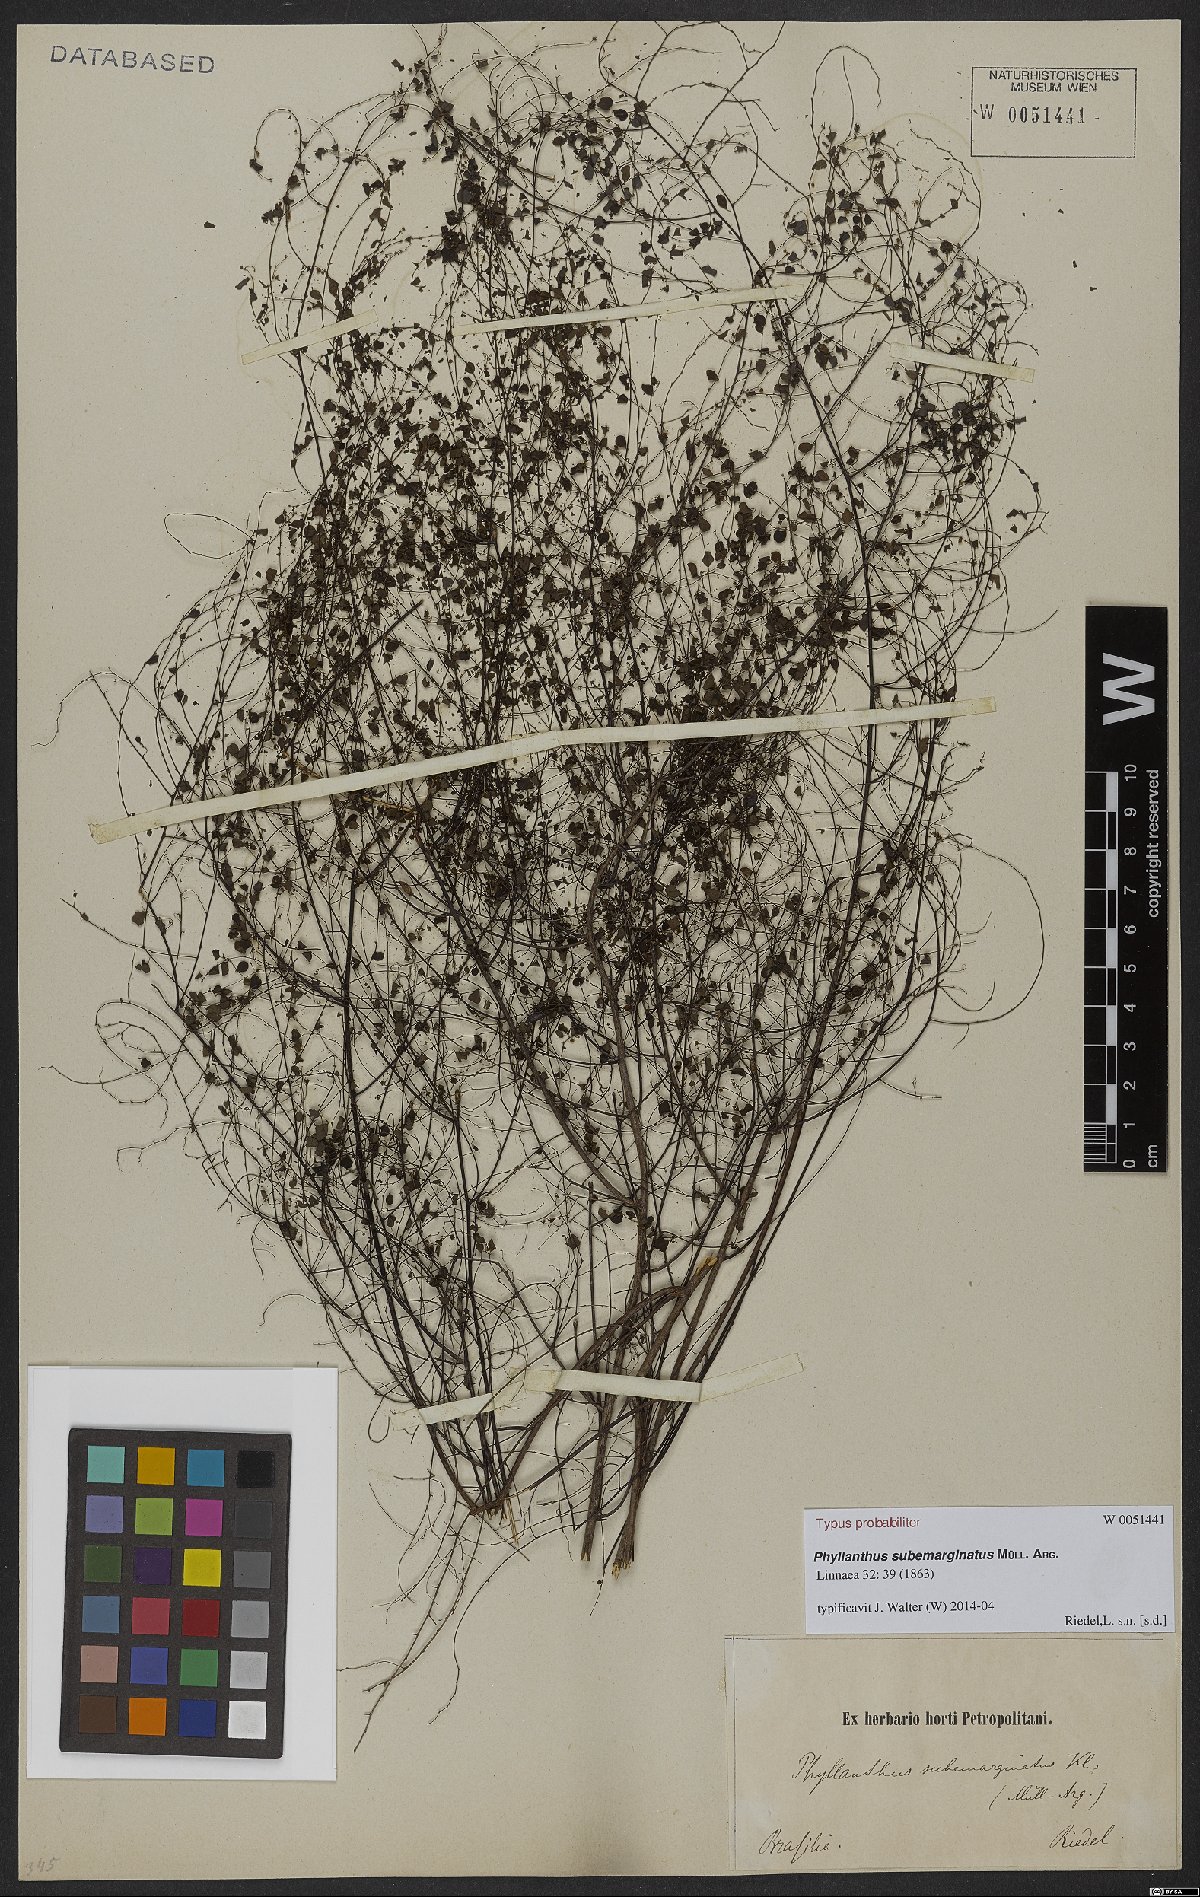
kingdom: Plantae
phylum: Tracheophyta
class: Magnoliopsida
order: Malpighiales
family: Phyllanthaceae
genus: Phyllanthus
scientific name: Phyllanthus subemarginatus
